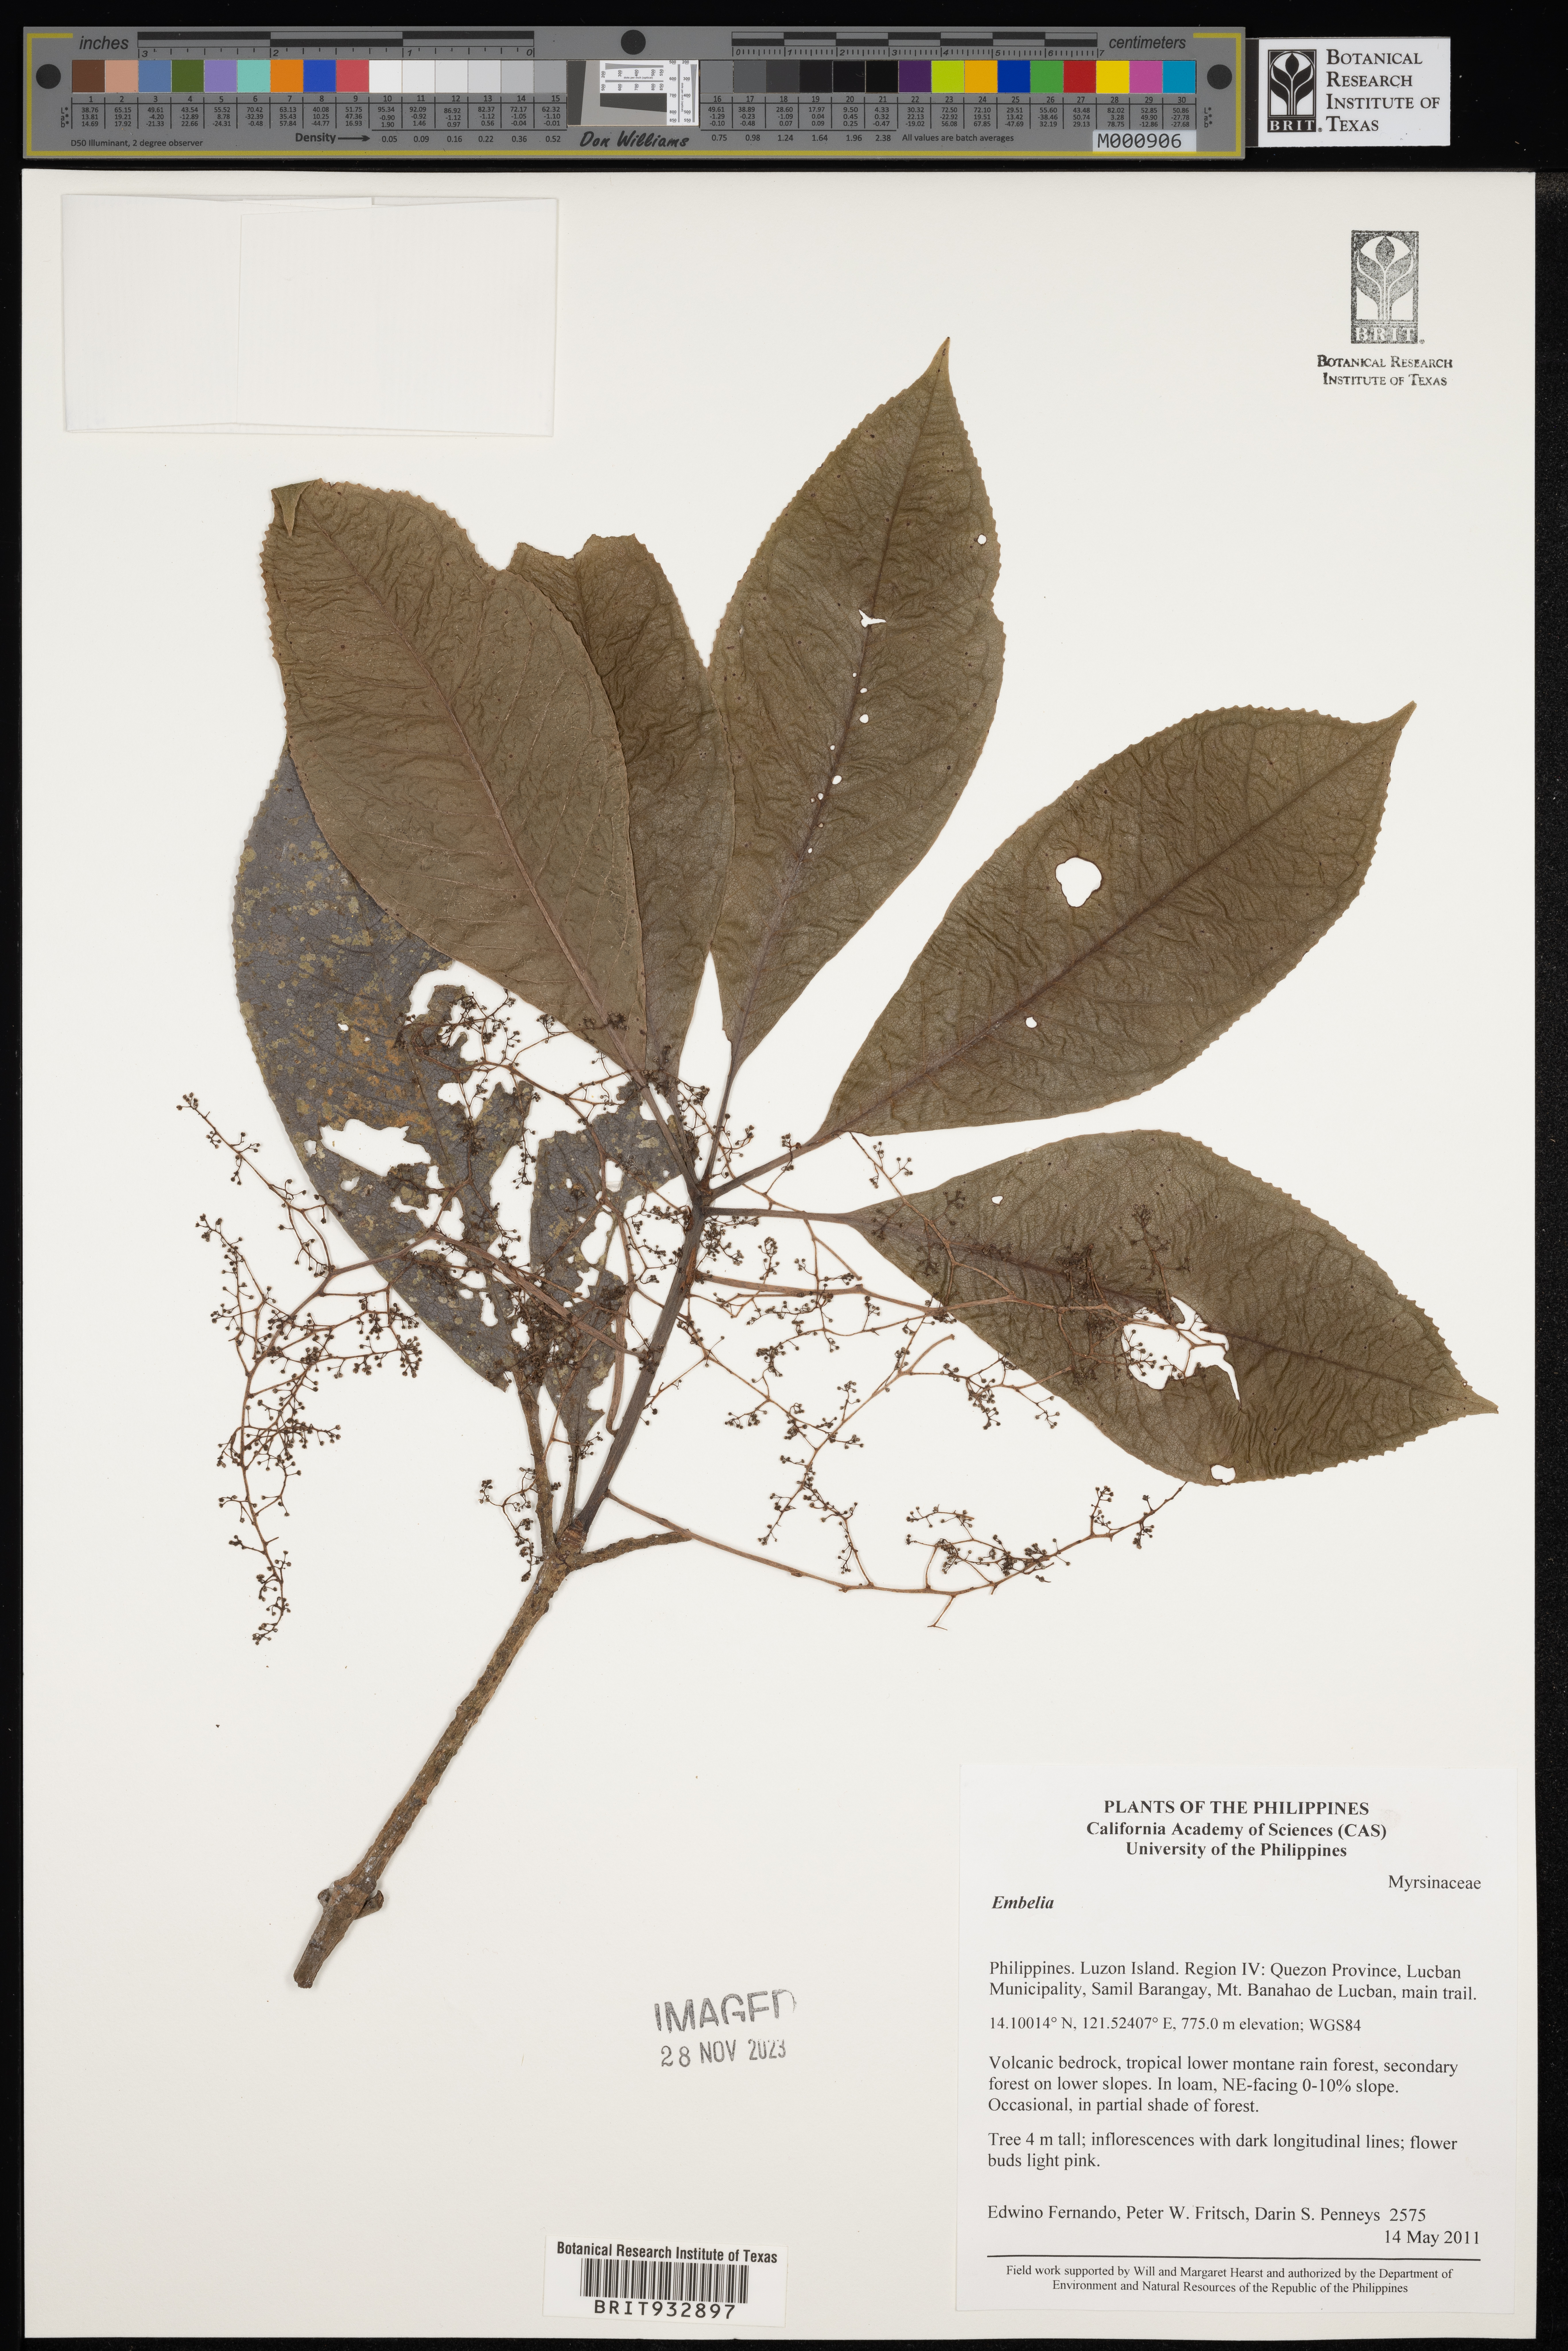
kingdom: Plantae
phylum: Tracheophyta
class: Magnoliopsida
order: Ericales
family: Primulaceae
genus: Embelia
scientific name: Embelia
